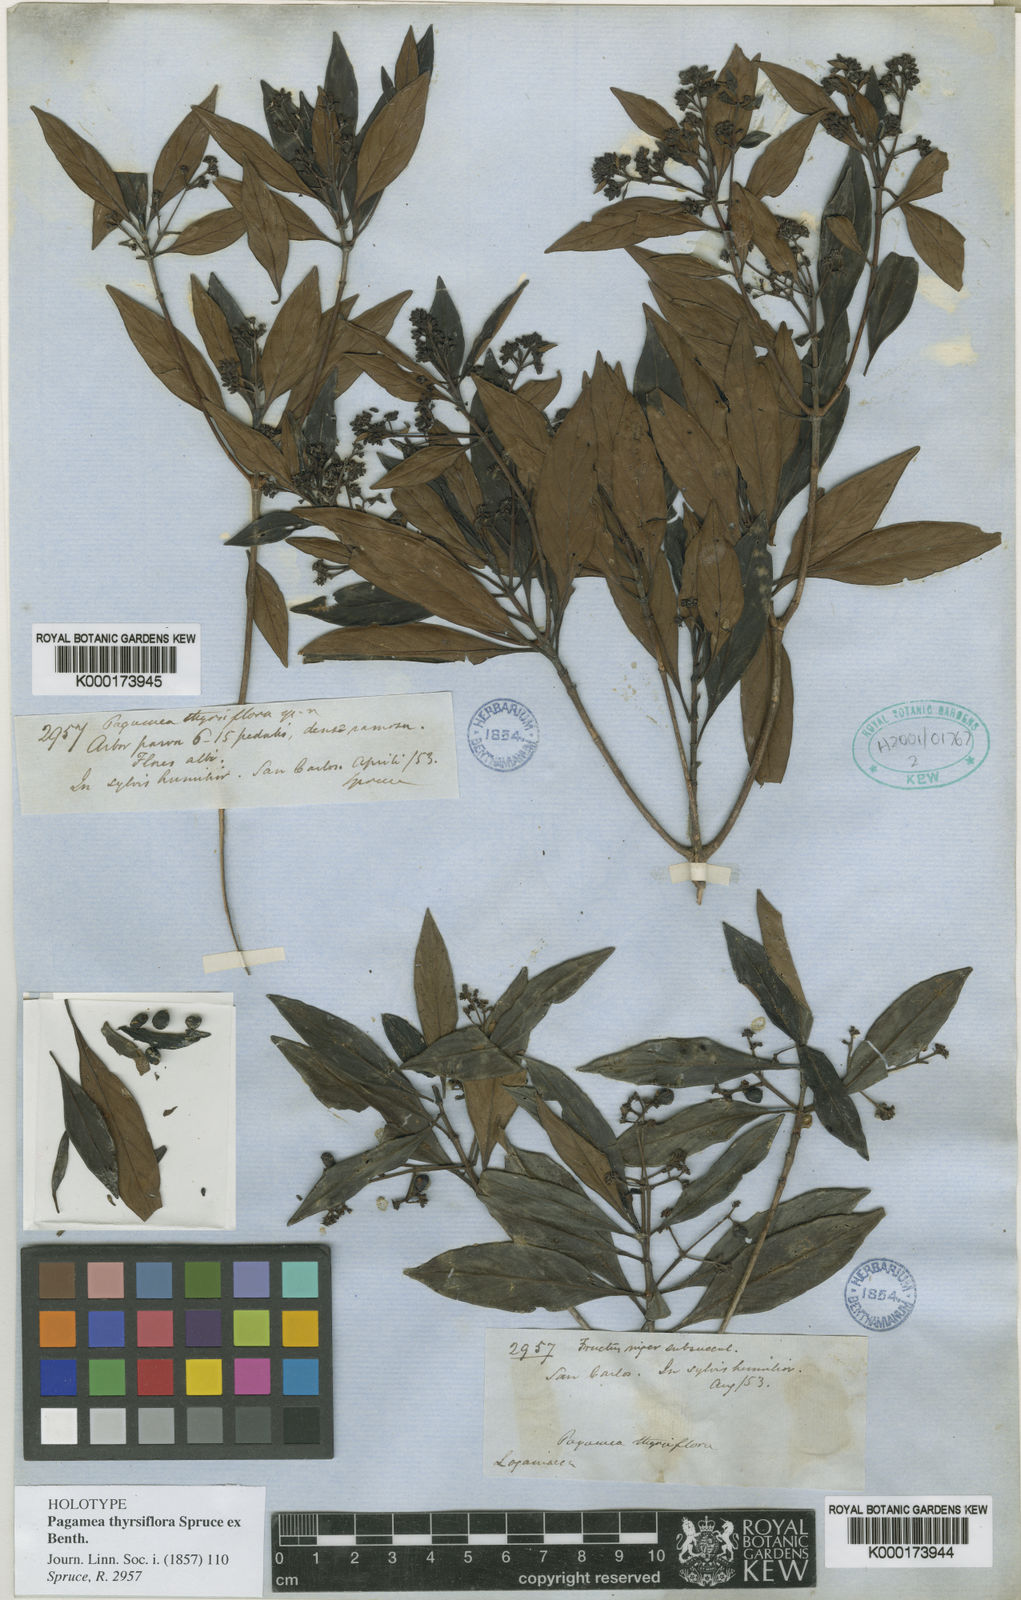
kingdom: Plantae
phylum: Tracheophyta
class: Magnoliopsida
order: Gentianales
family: Rubiaceae
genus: Pagamea
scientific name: Pagamea thyrsiflora
